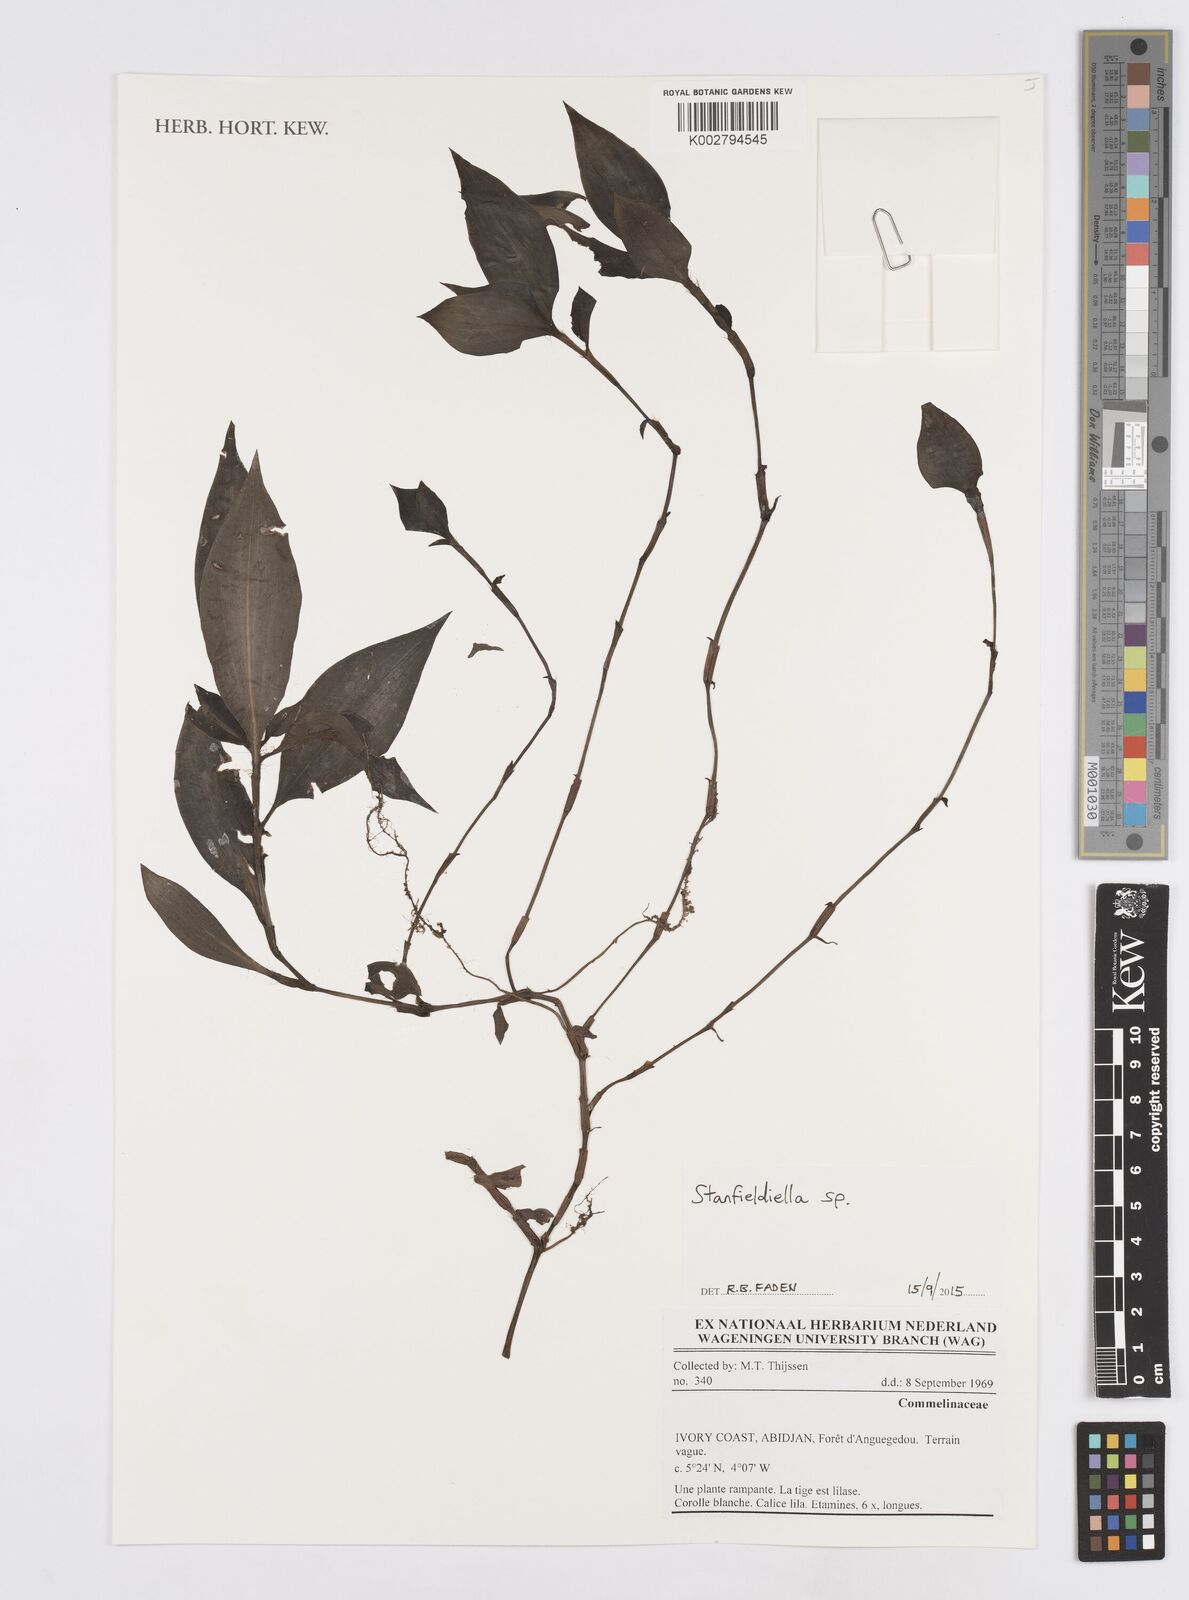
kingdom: Plantae
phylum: Tracheophyta
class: Liliopsida
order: Commelinales
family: Commelinaceae
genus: Stanfieldiella
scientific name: Stanfieldiella
